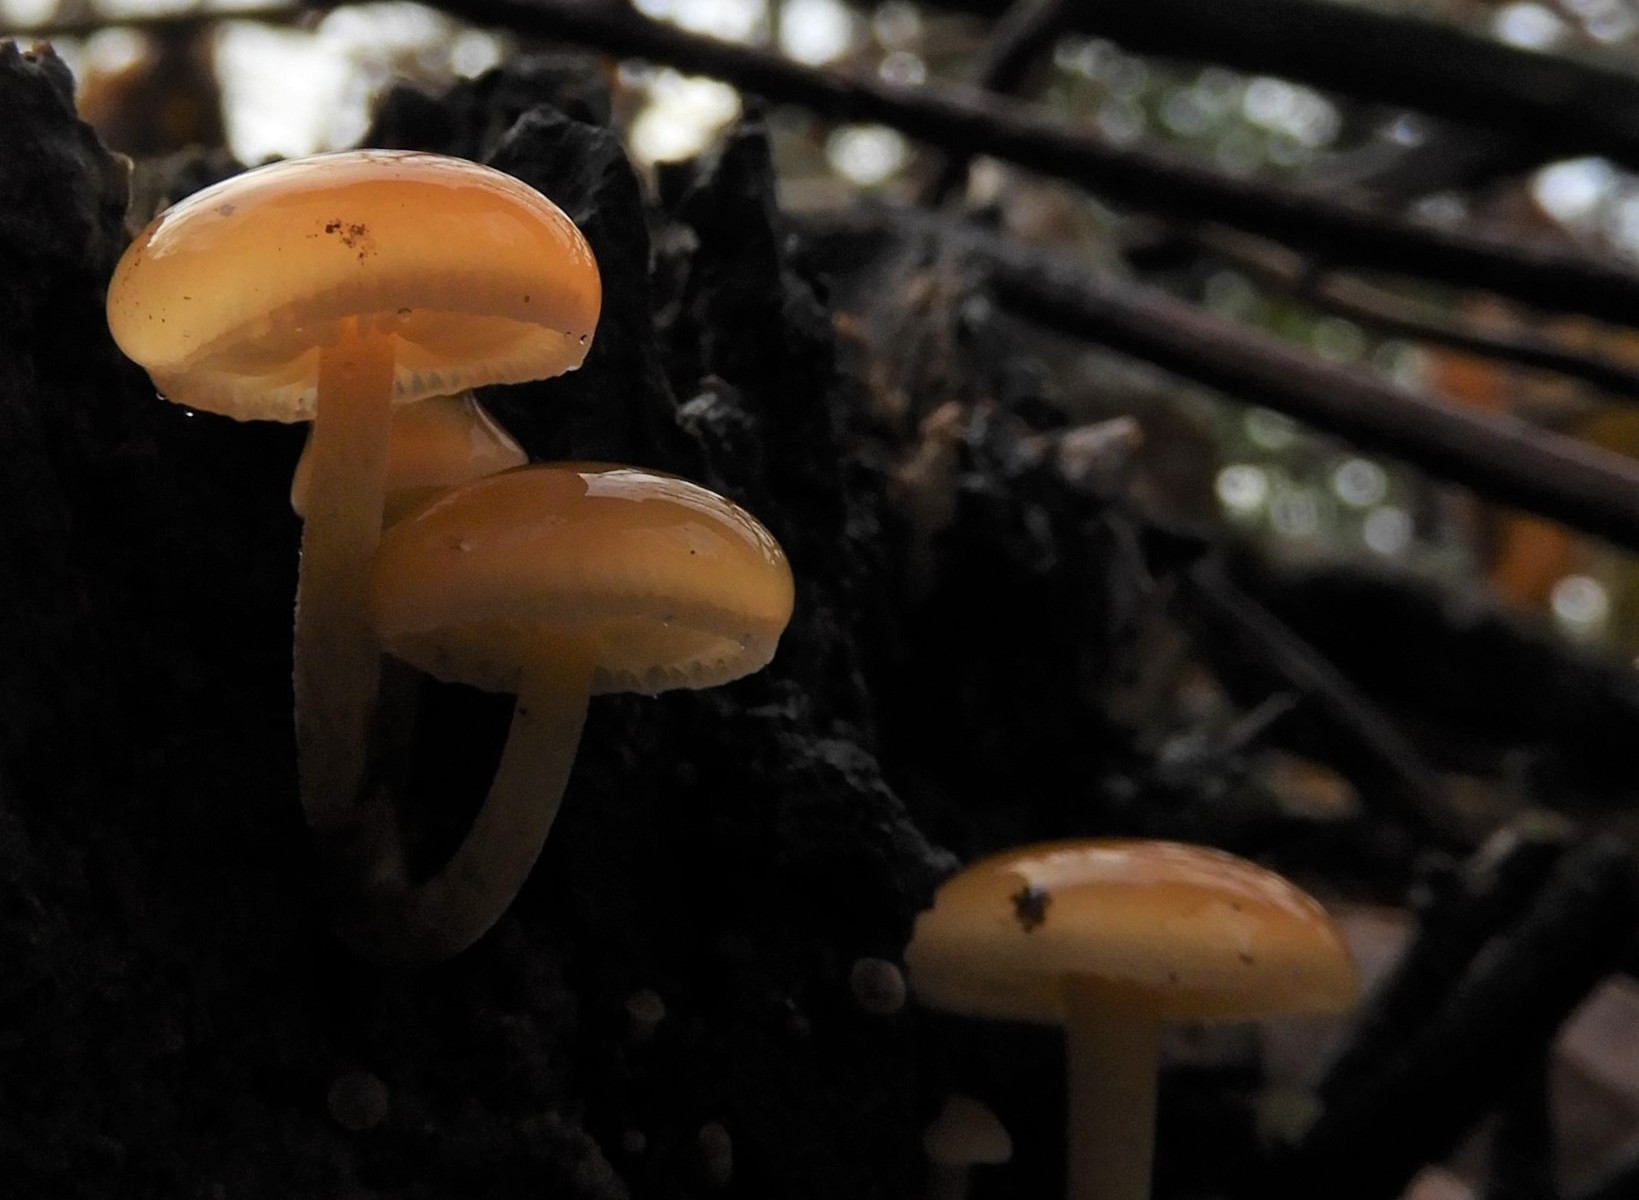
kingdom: Fungi
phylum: Basidiomycota
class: Agaricomycetes
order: Agaricales
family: Physalacriaceae
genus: Flammulina
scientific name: Flammulina velutipes
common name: gul fløjlsfod
